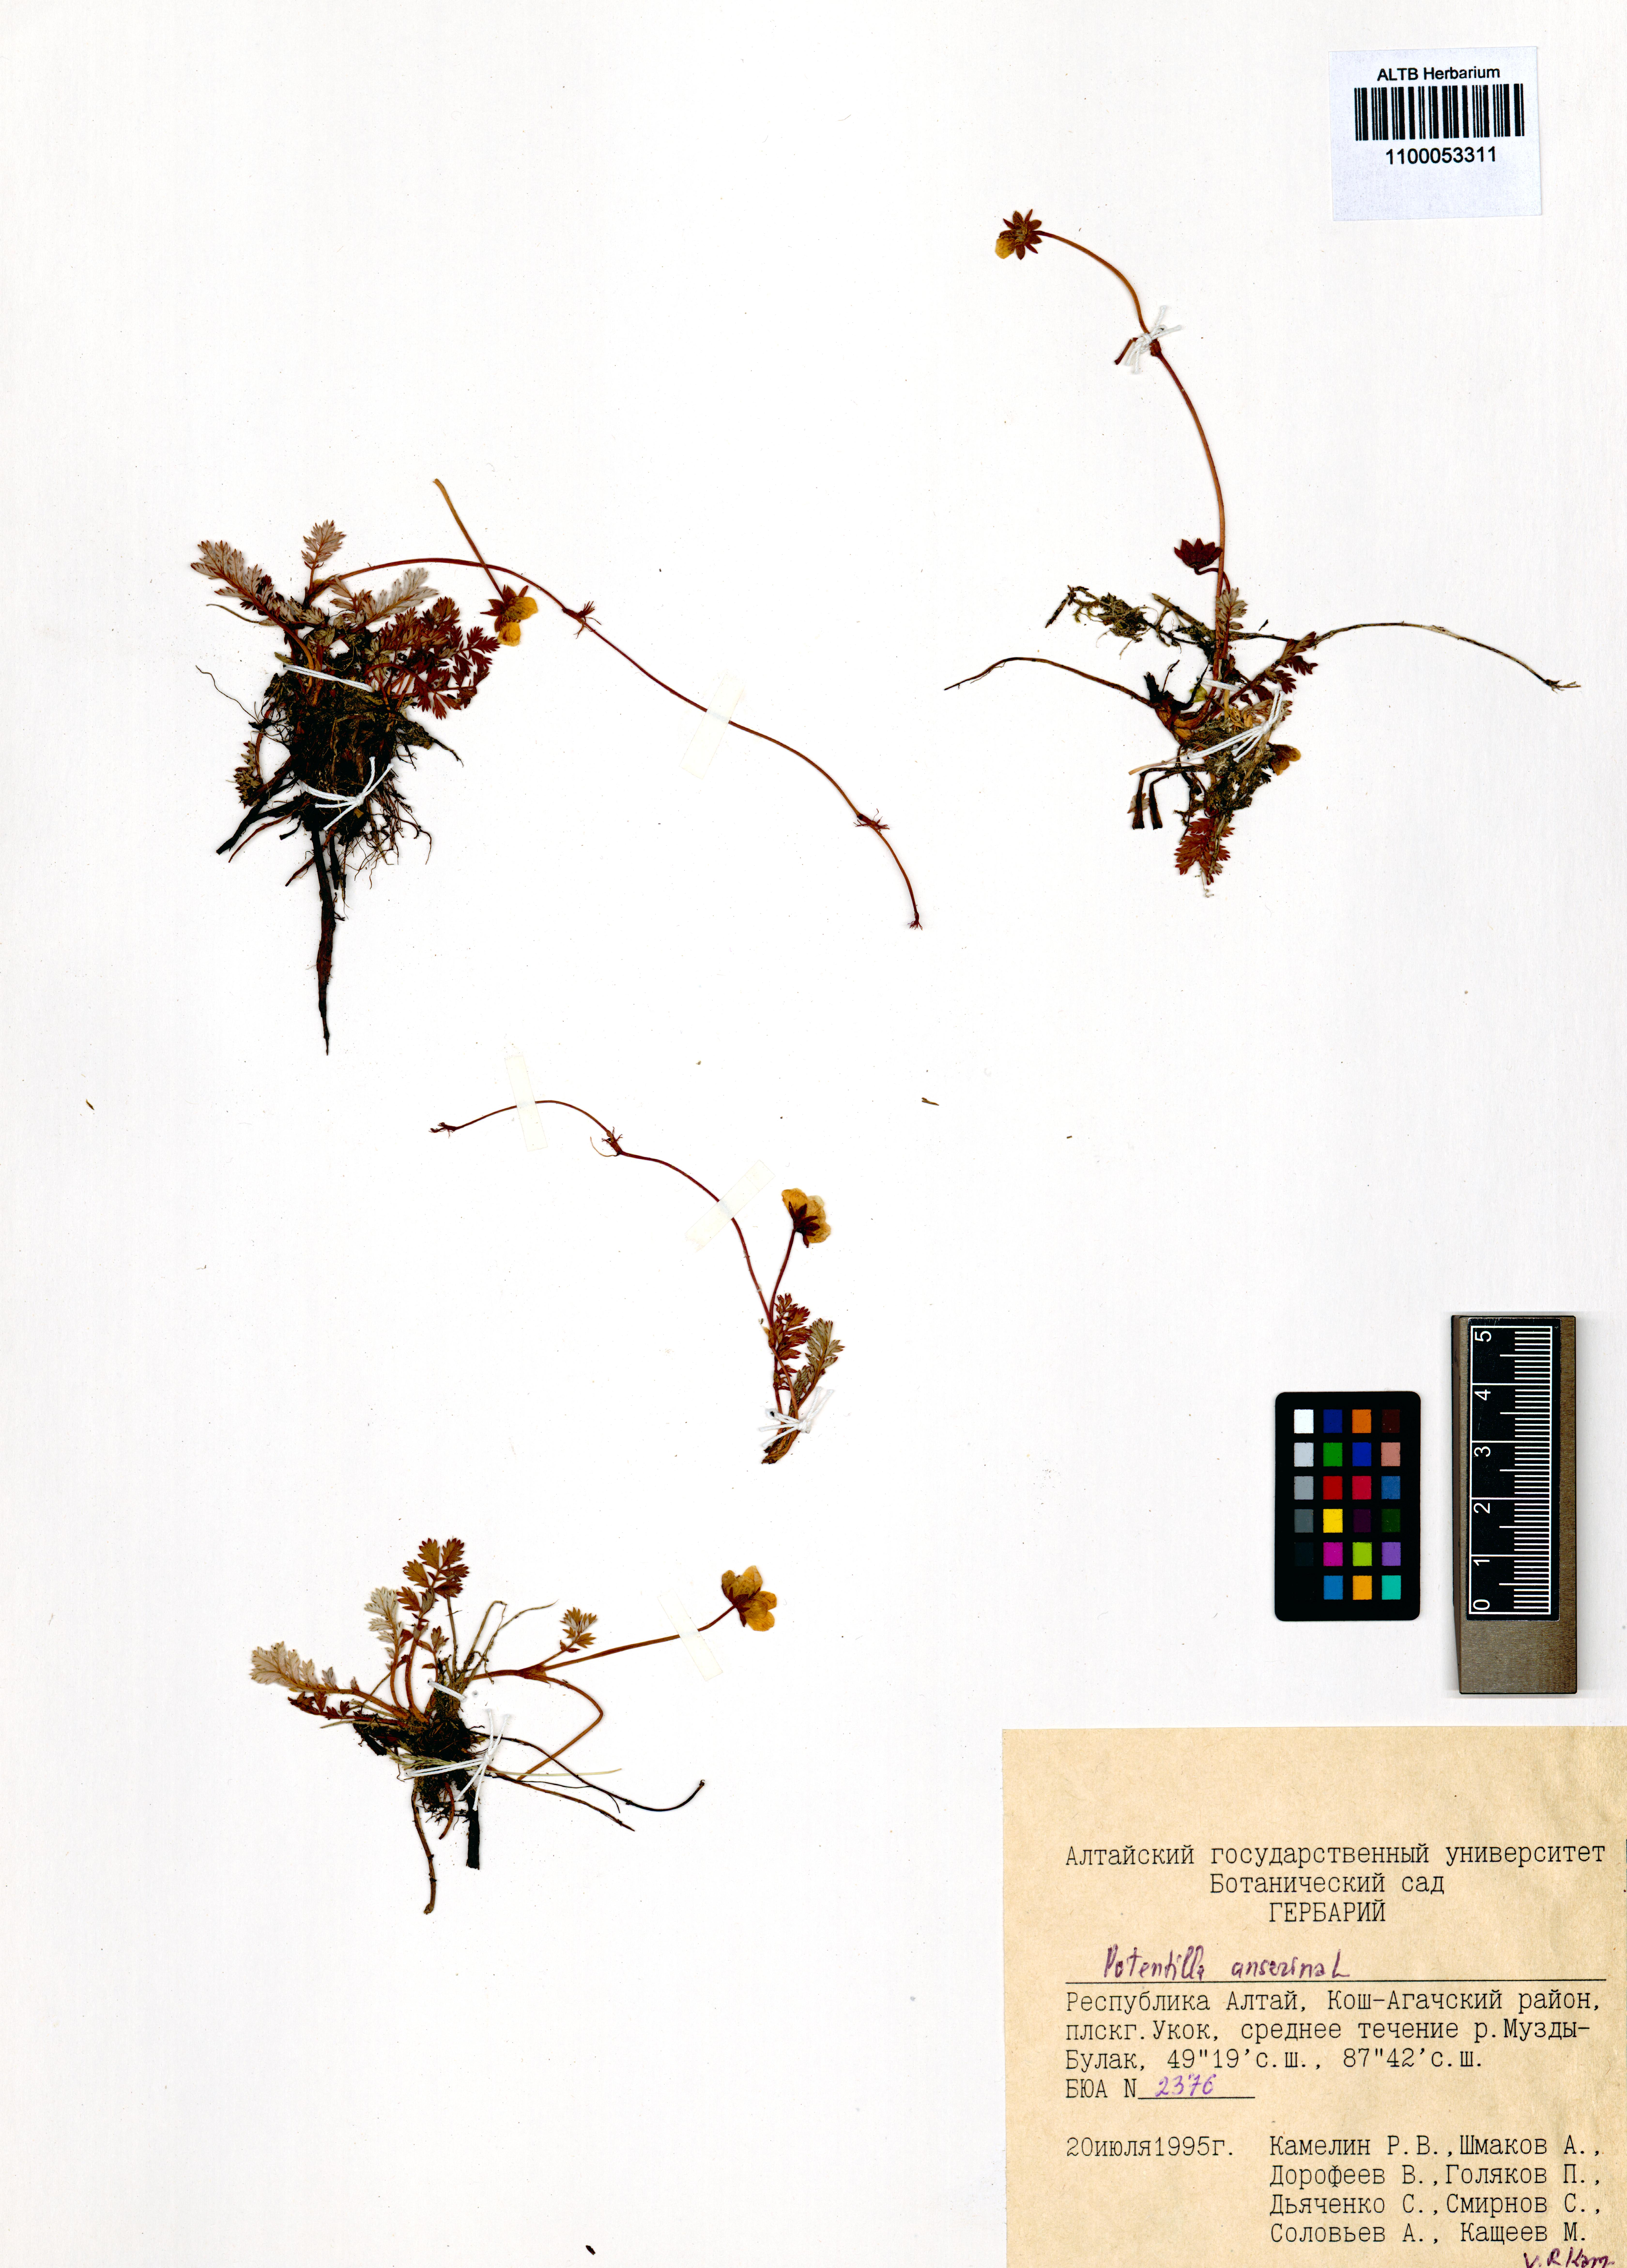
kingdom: Plantae
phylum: Tracheophyta
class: Magnoliopsida
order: Rosales
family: Rosaceae
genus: Argentina
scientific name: Argentina anserina
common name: Common silverweed
